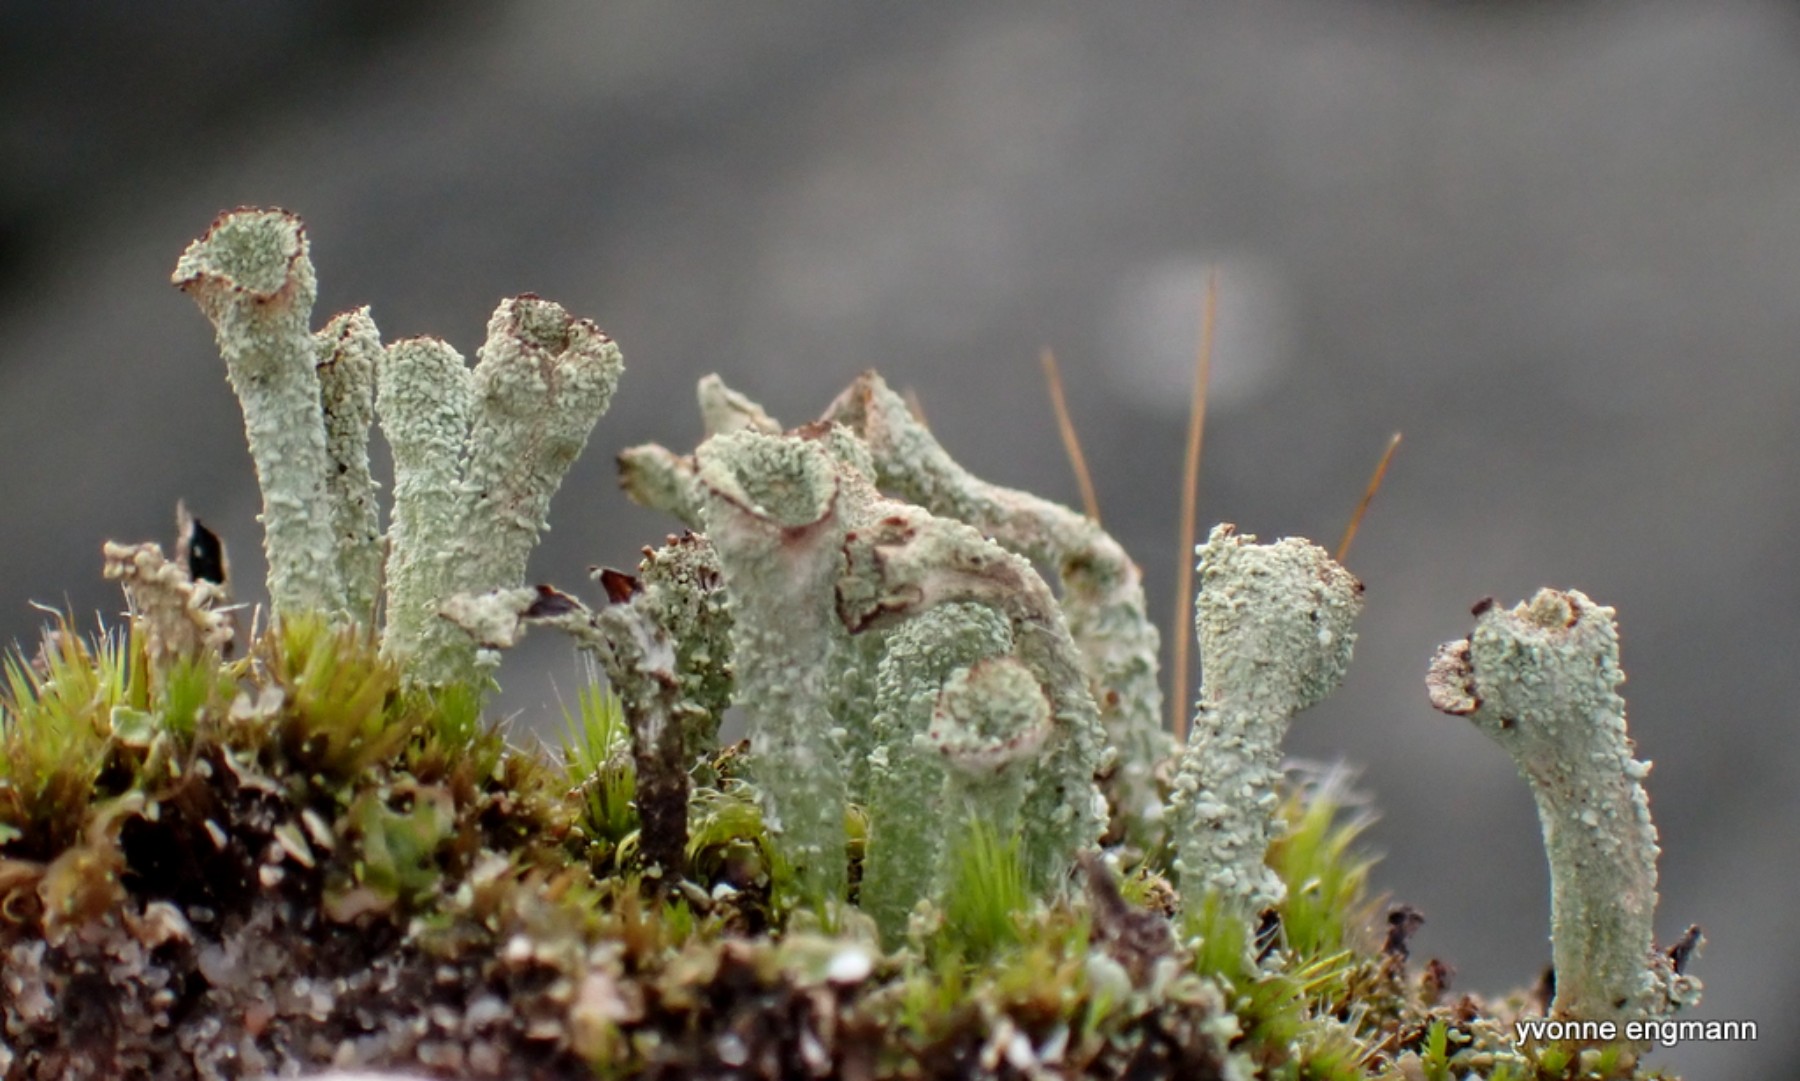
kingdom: Fungi
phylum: Ascomycota
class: Lecanoromycetes
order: Lecanorales
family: Cladoniaceae
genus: Cladonia
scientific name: Cladonia
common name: brungrøn bægerlav
